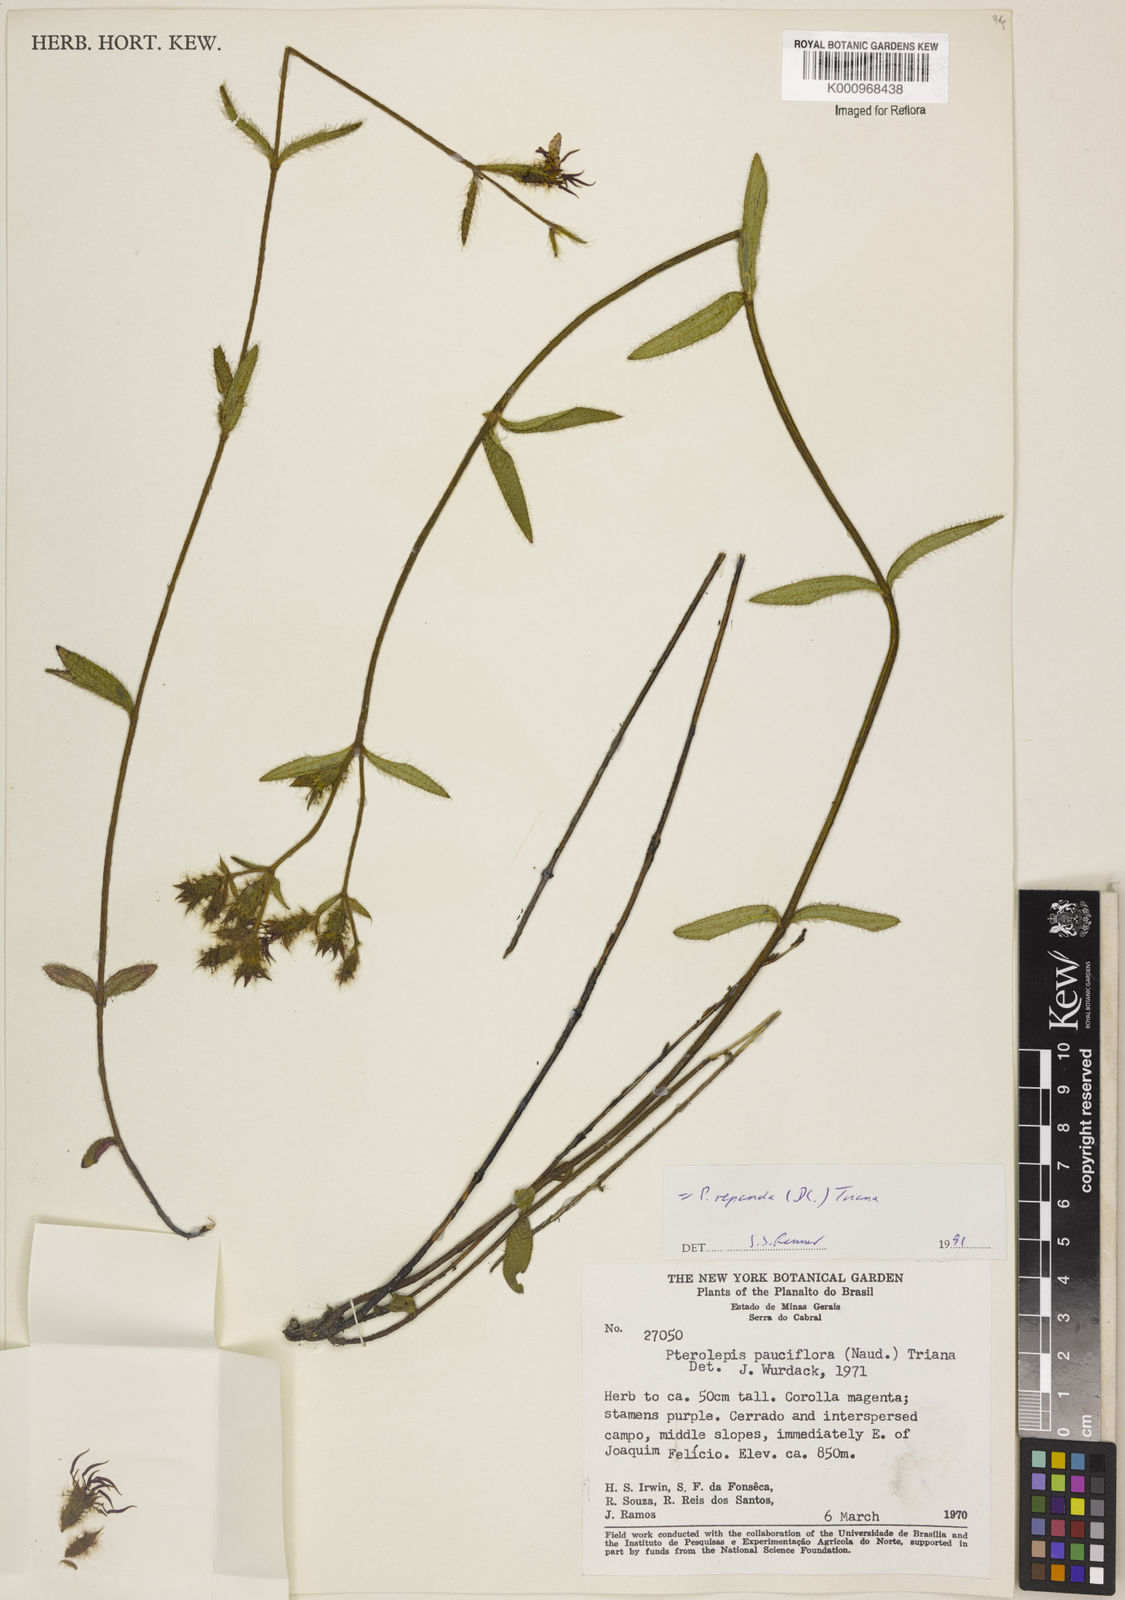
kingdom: Plantae
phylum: Tracheophyta
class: Magnoliopsida
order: Myrtales
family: Melastomataceae
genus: Pterolepis
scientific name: Pterolepis repanda
